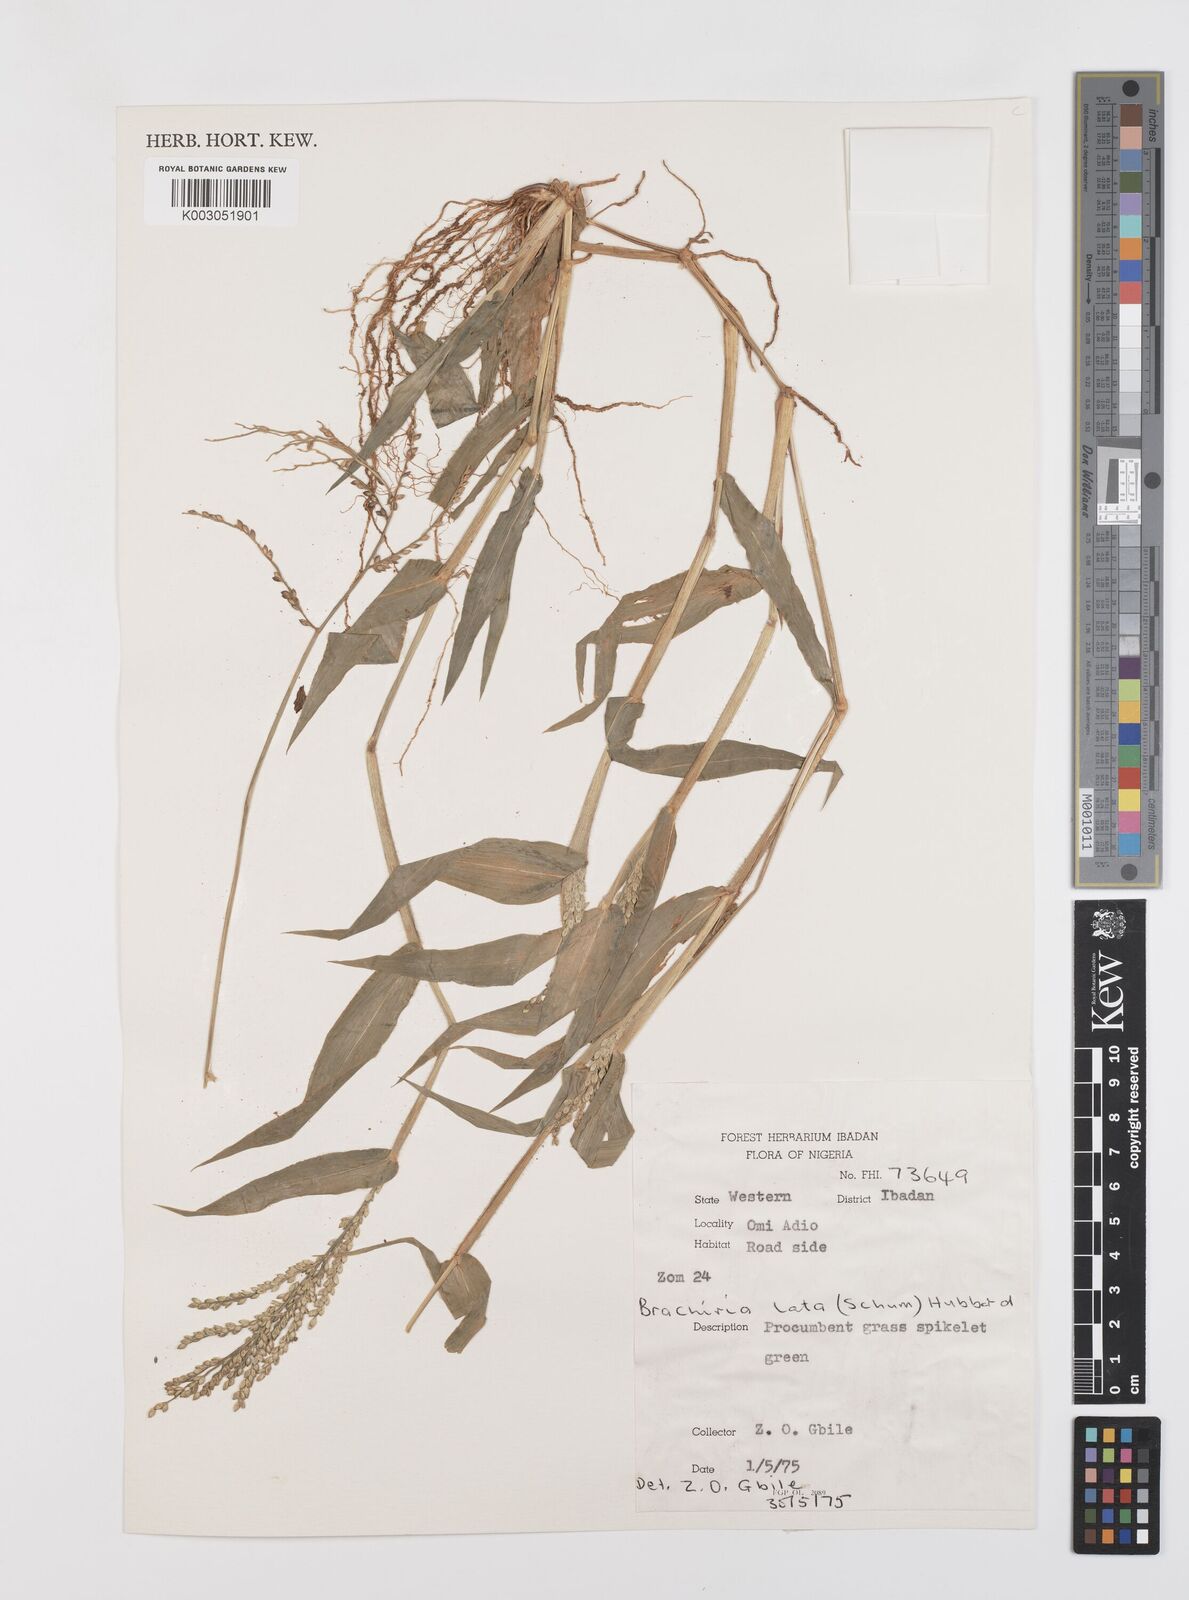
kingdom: Plantae
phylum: Tracheophyta
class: Liliopsida
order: Poales
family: Poaceae
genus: Urochloa
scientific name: Urochloa lata
